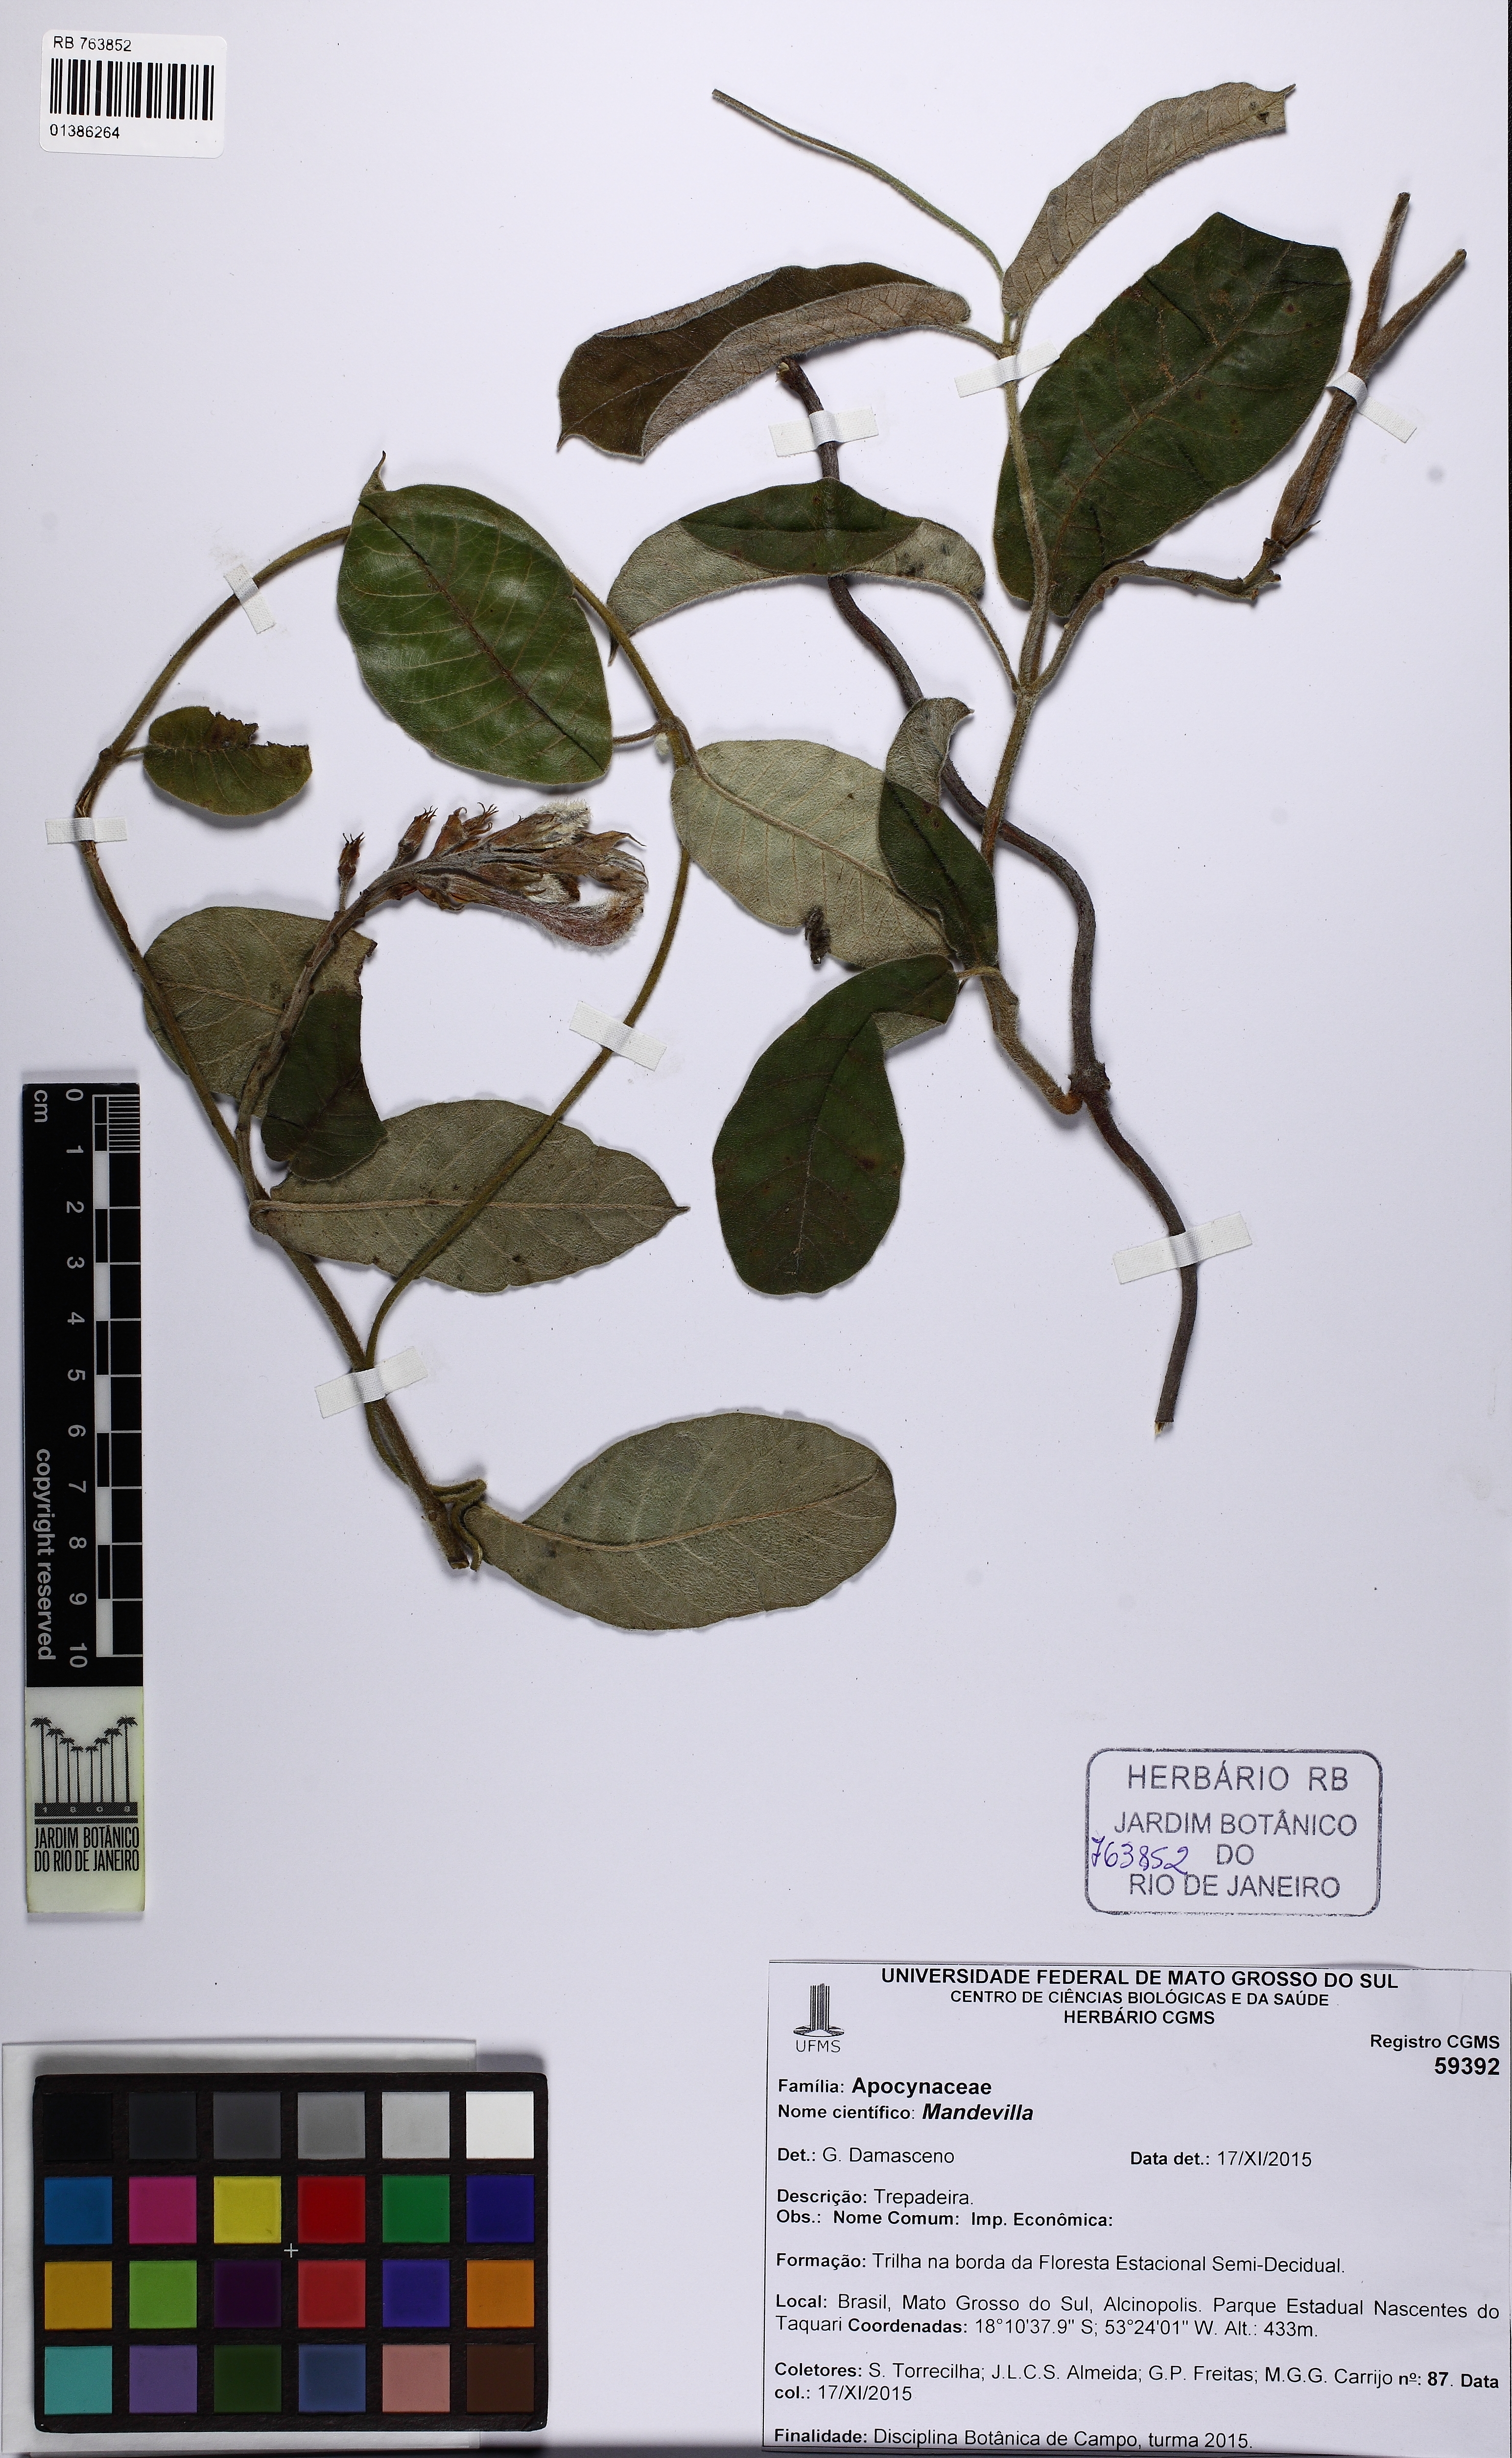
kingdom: Plantae
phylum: Tracheophyta
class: Magnoliopsida
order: Gentianales
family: Apocynaceae
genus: Mandevilla
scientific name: Mandevilla
